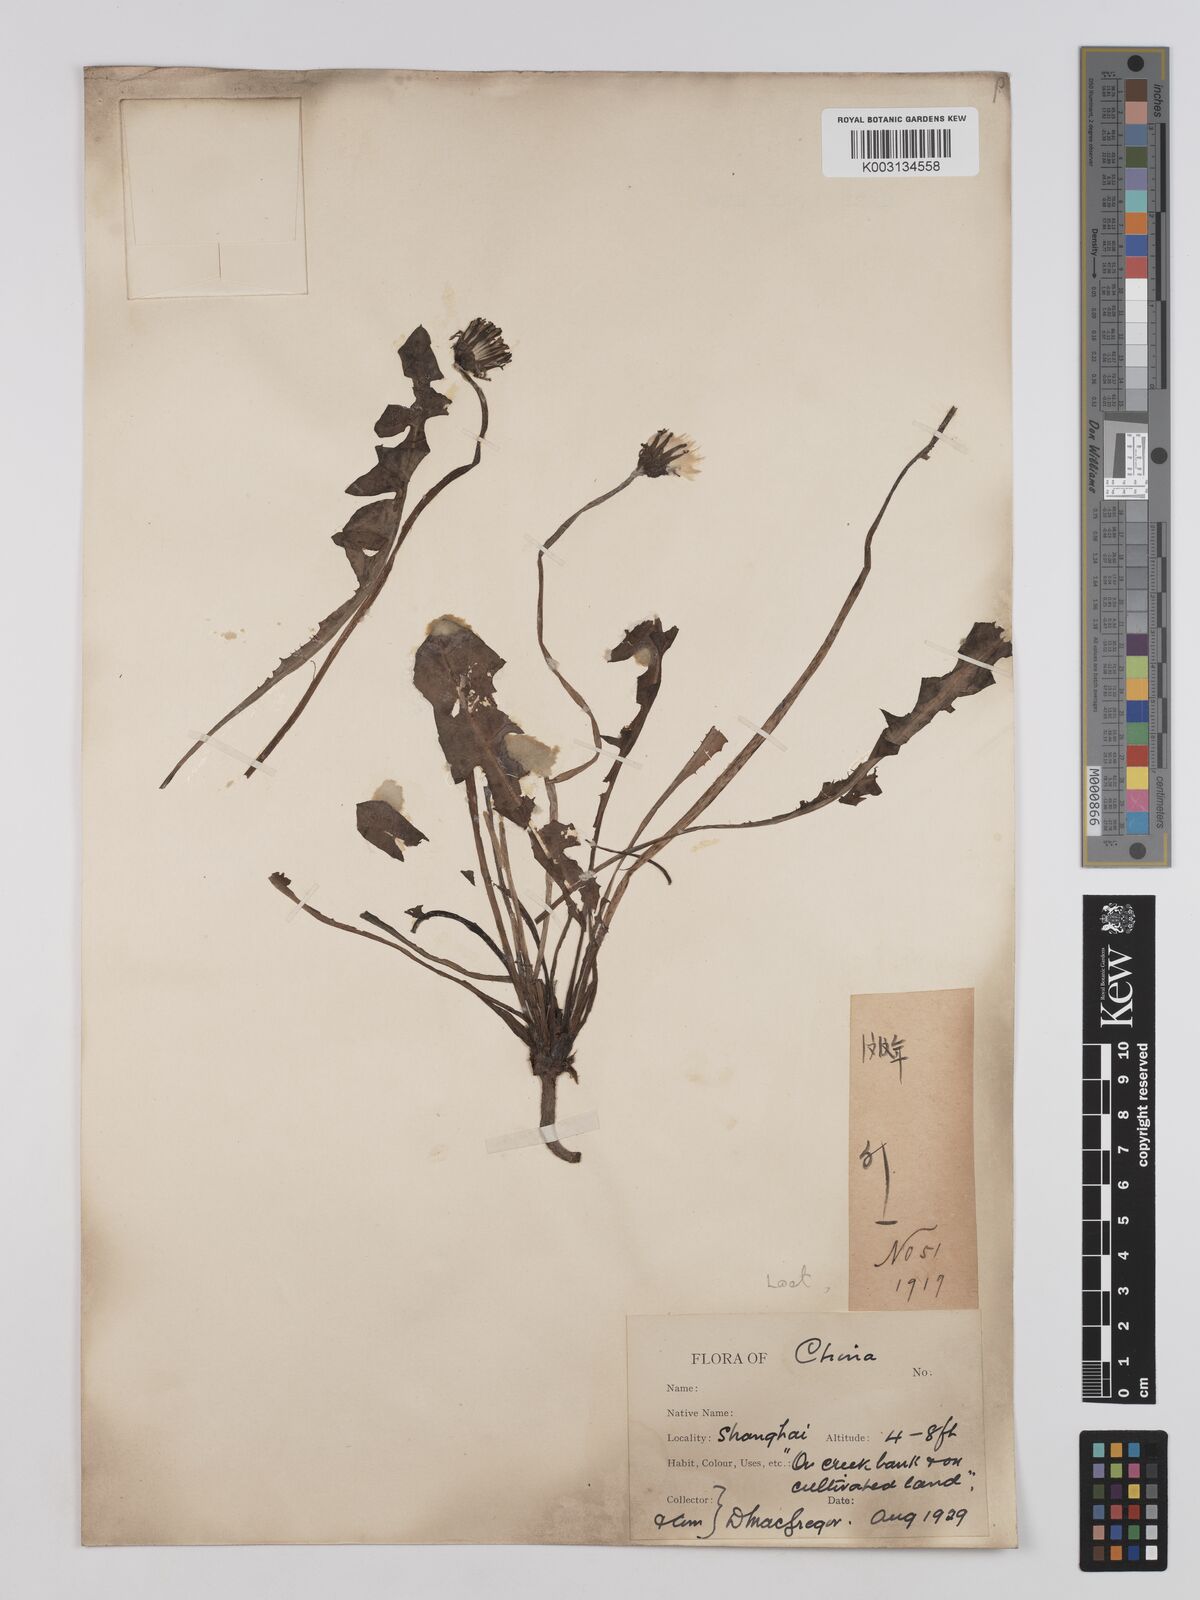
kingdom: Plantae
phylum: Tracheophyta
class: Magnoliopsida
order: Asterales
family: Asteraceae
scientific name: Asteraceae
